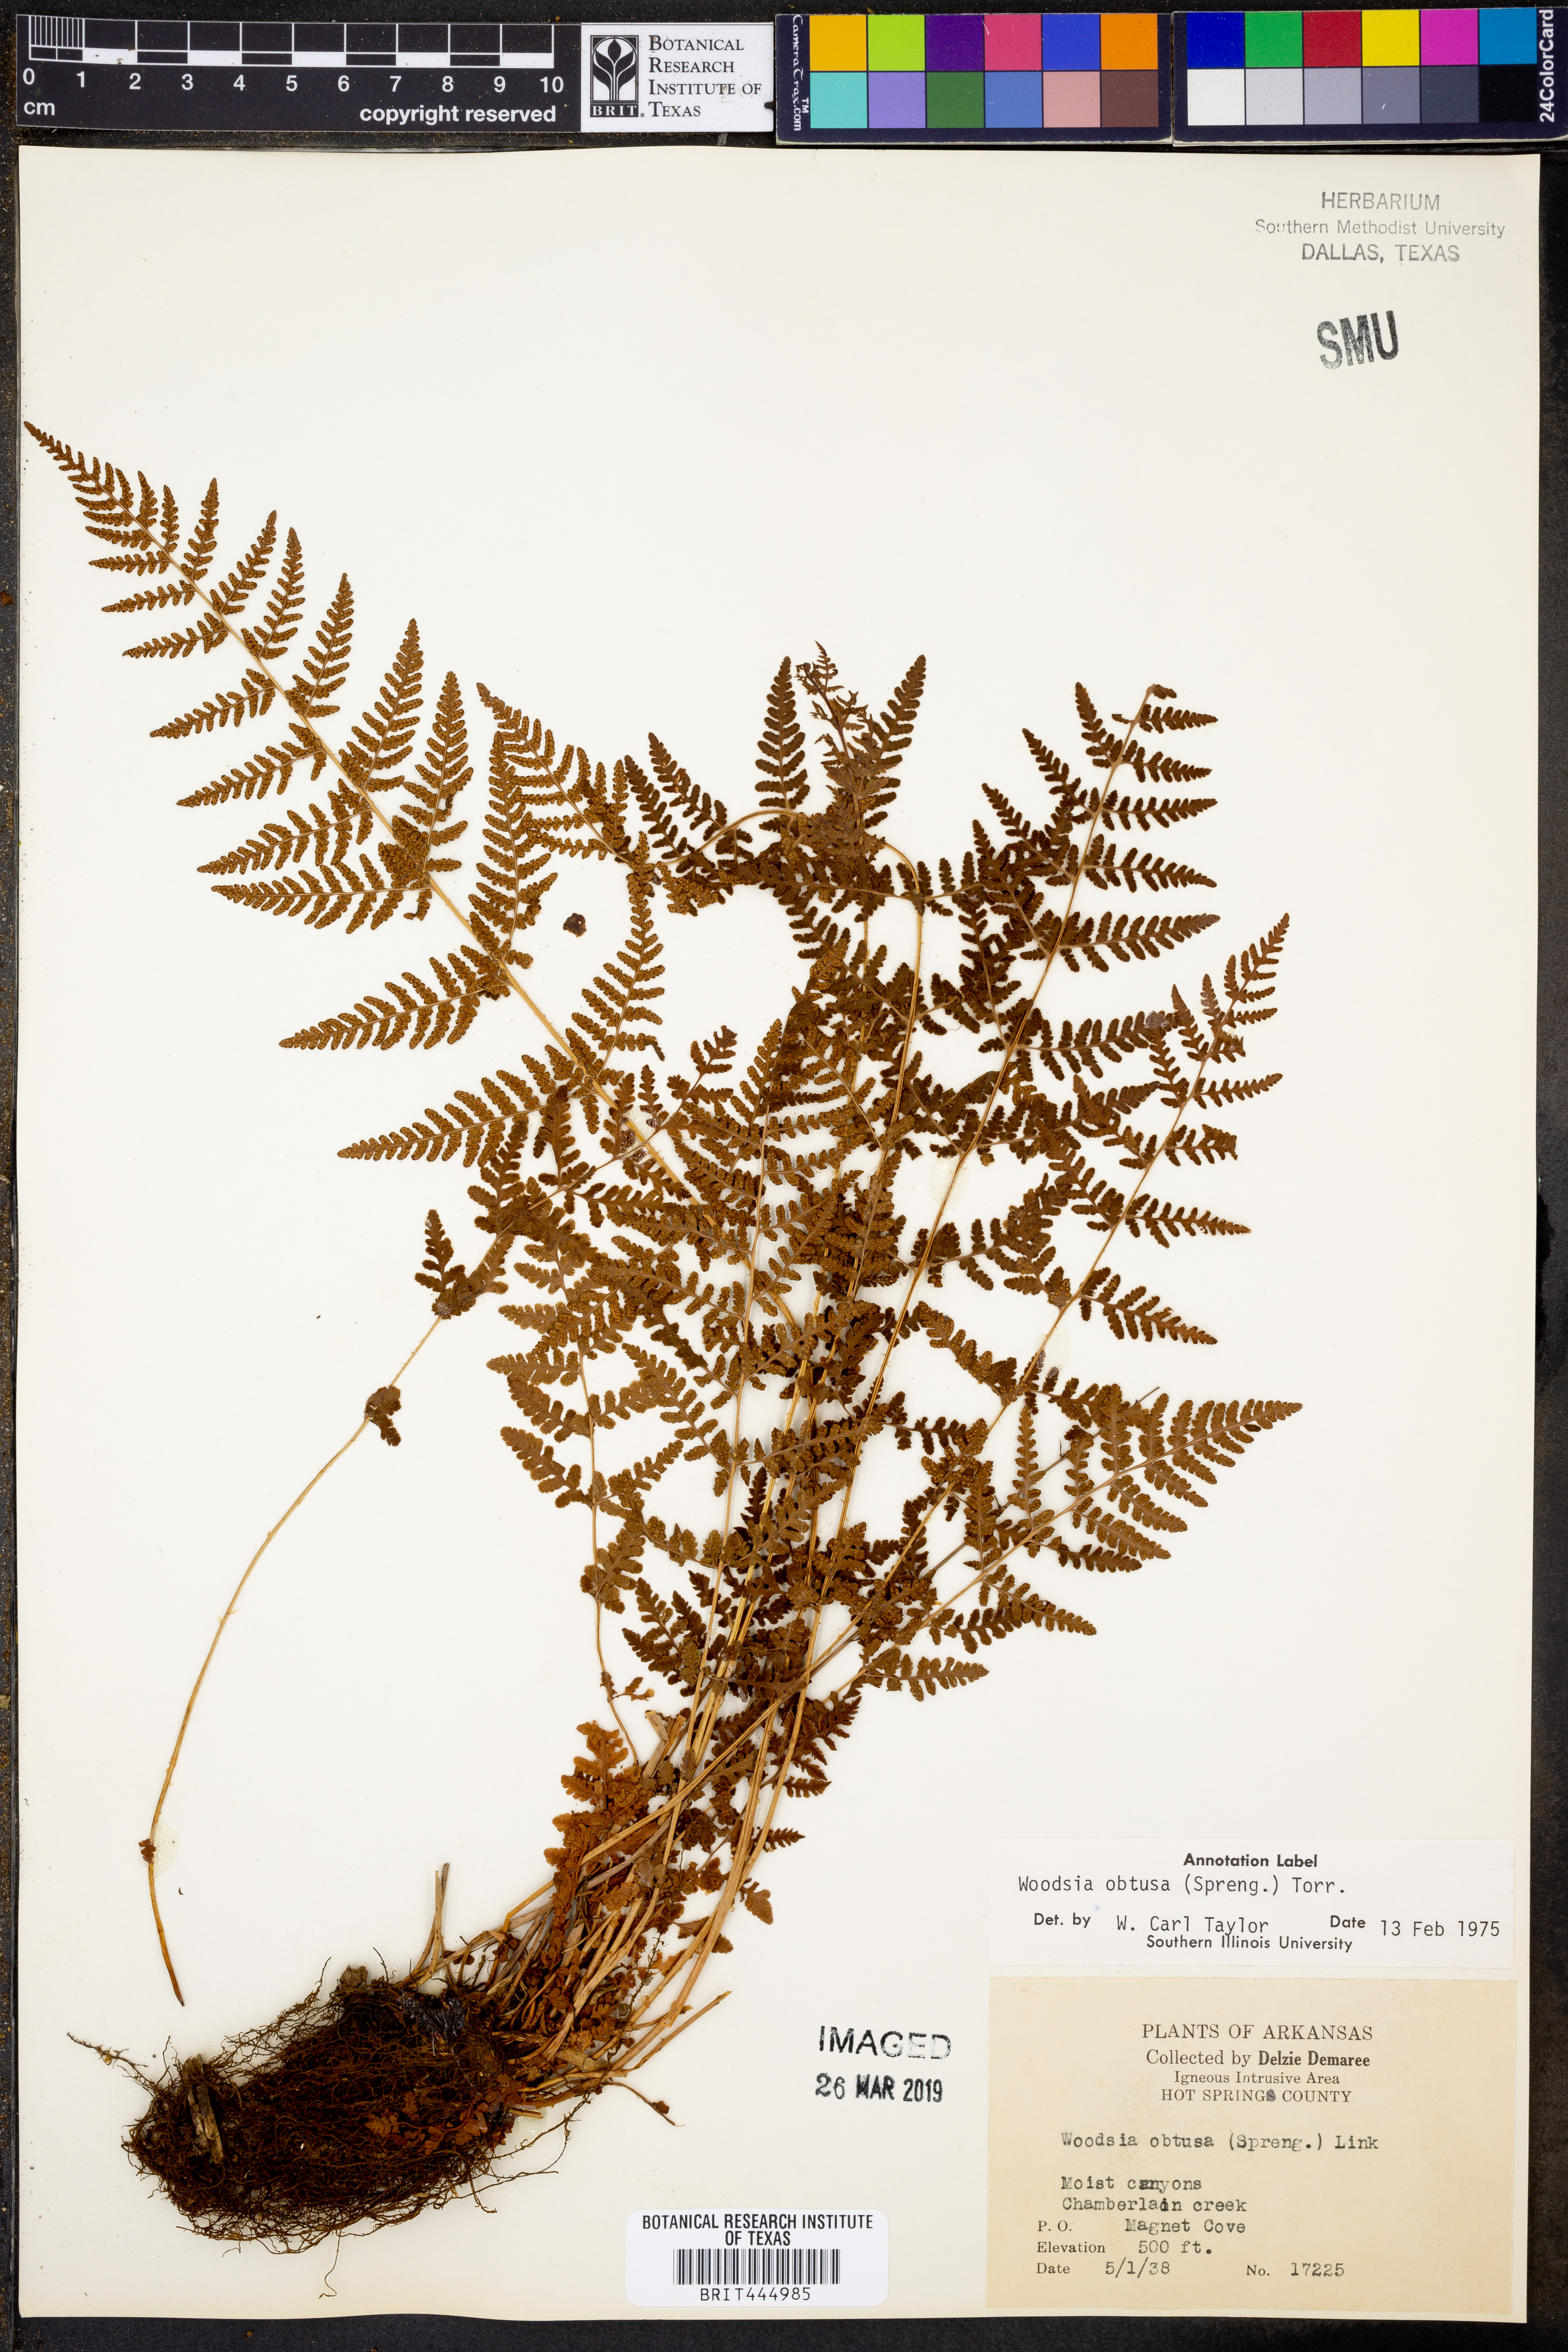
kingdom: Plantae
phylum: Tracheophyta
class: Polypodiopsida
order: Polypodiales
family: Woodsiaceae
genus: Physematium
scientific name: Physematium obtusum
